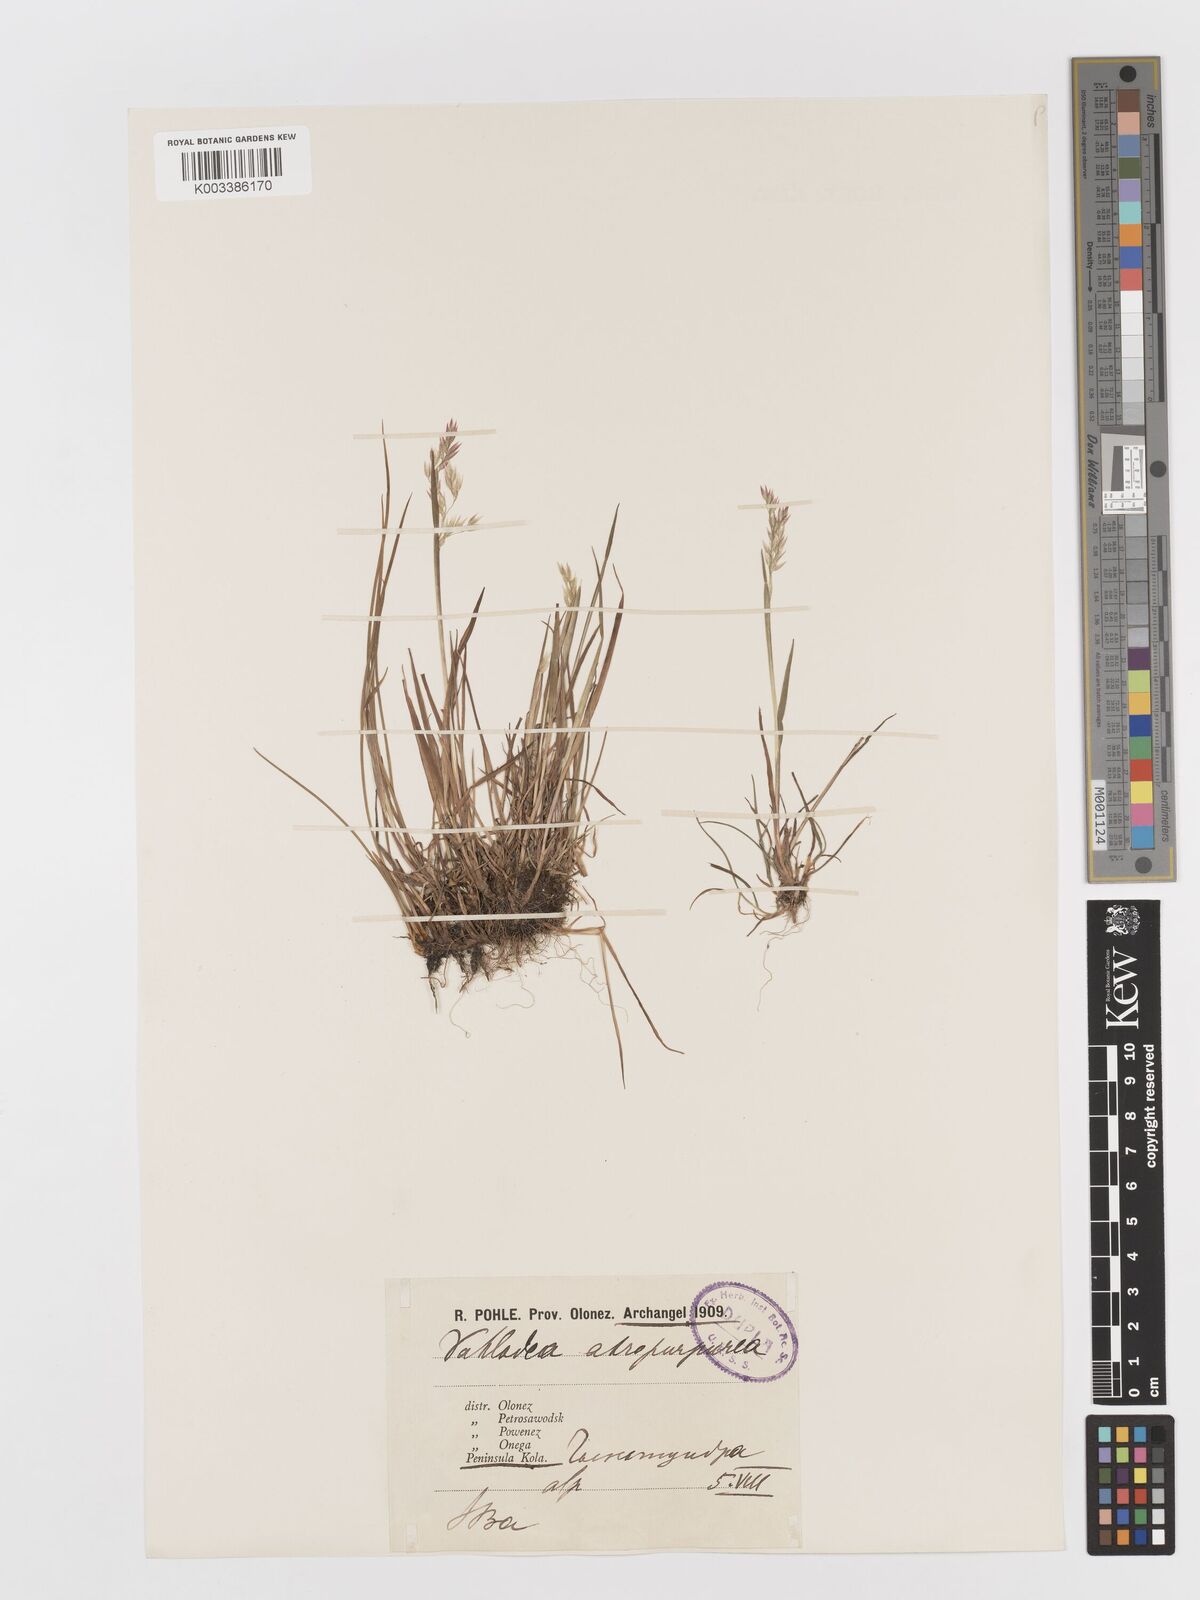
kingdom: Plantae
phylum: Tracheophyta
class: Liliopsida
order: Poales
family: Poaceae
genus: Vahlodea
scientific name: Vahlodea atropurpurea
